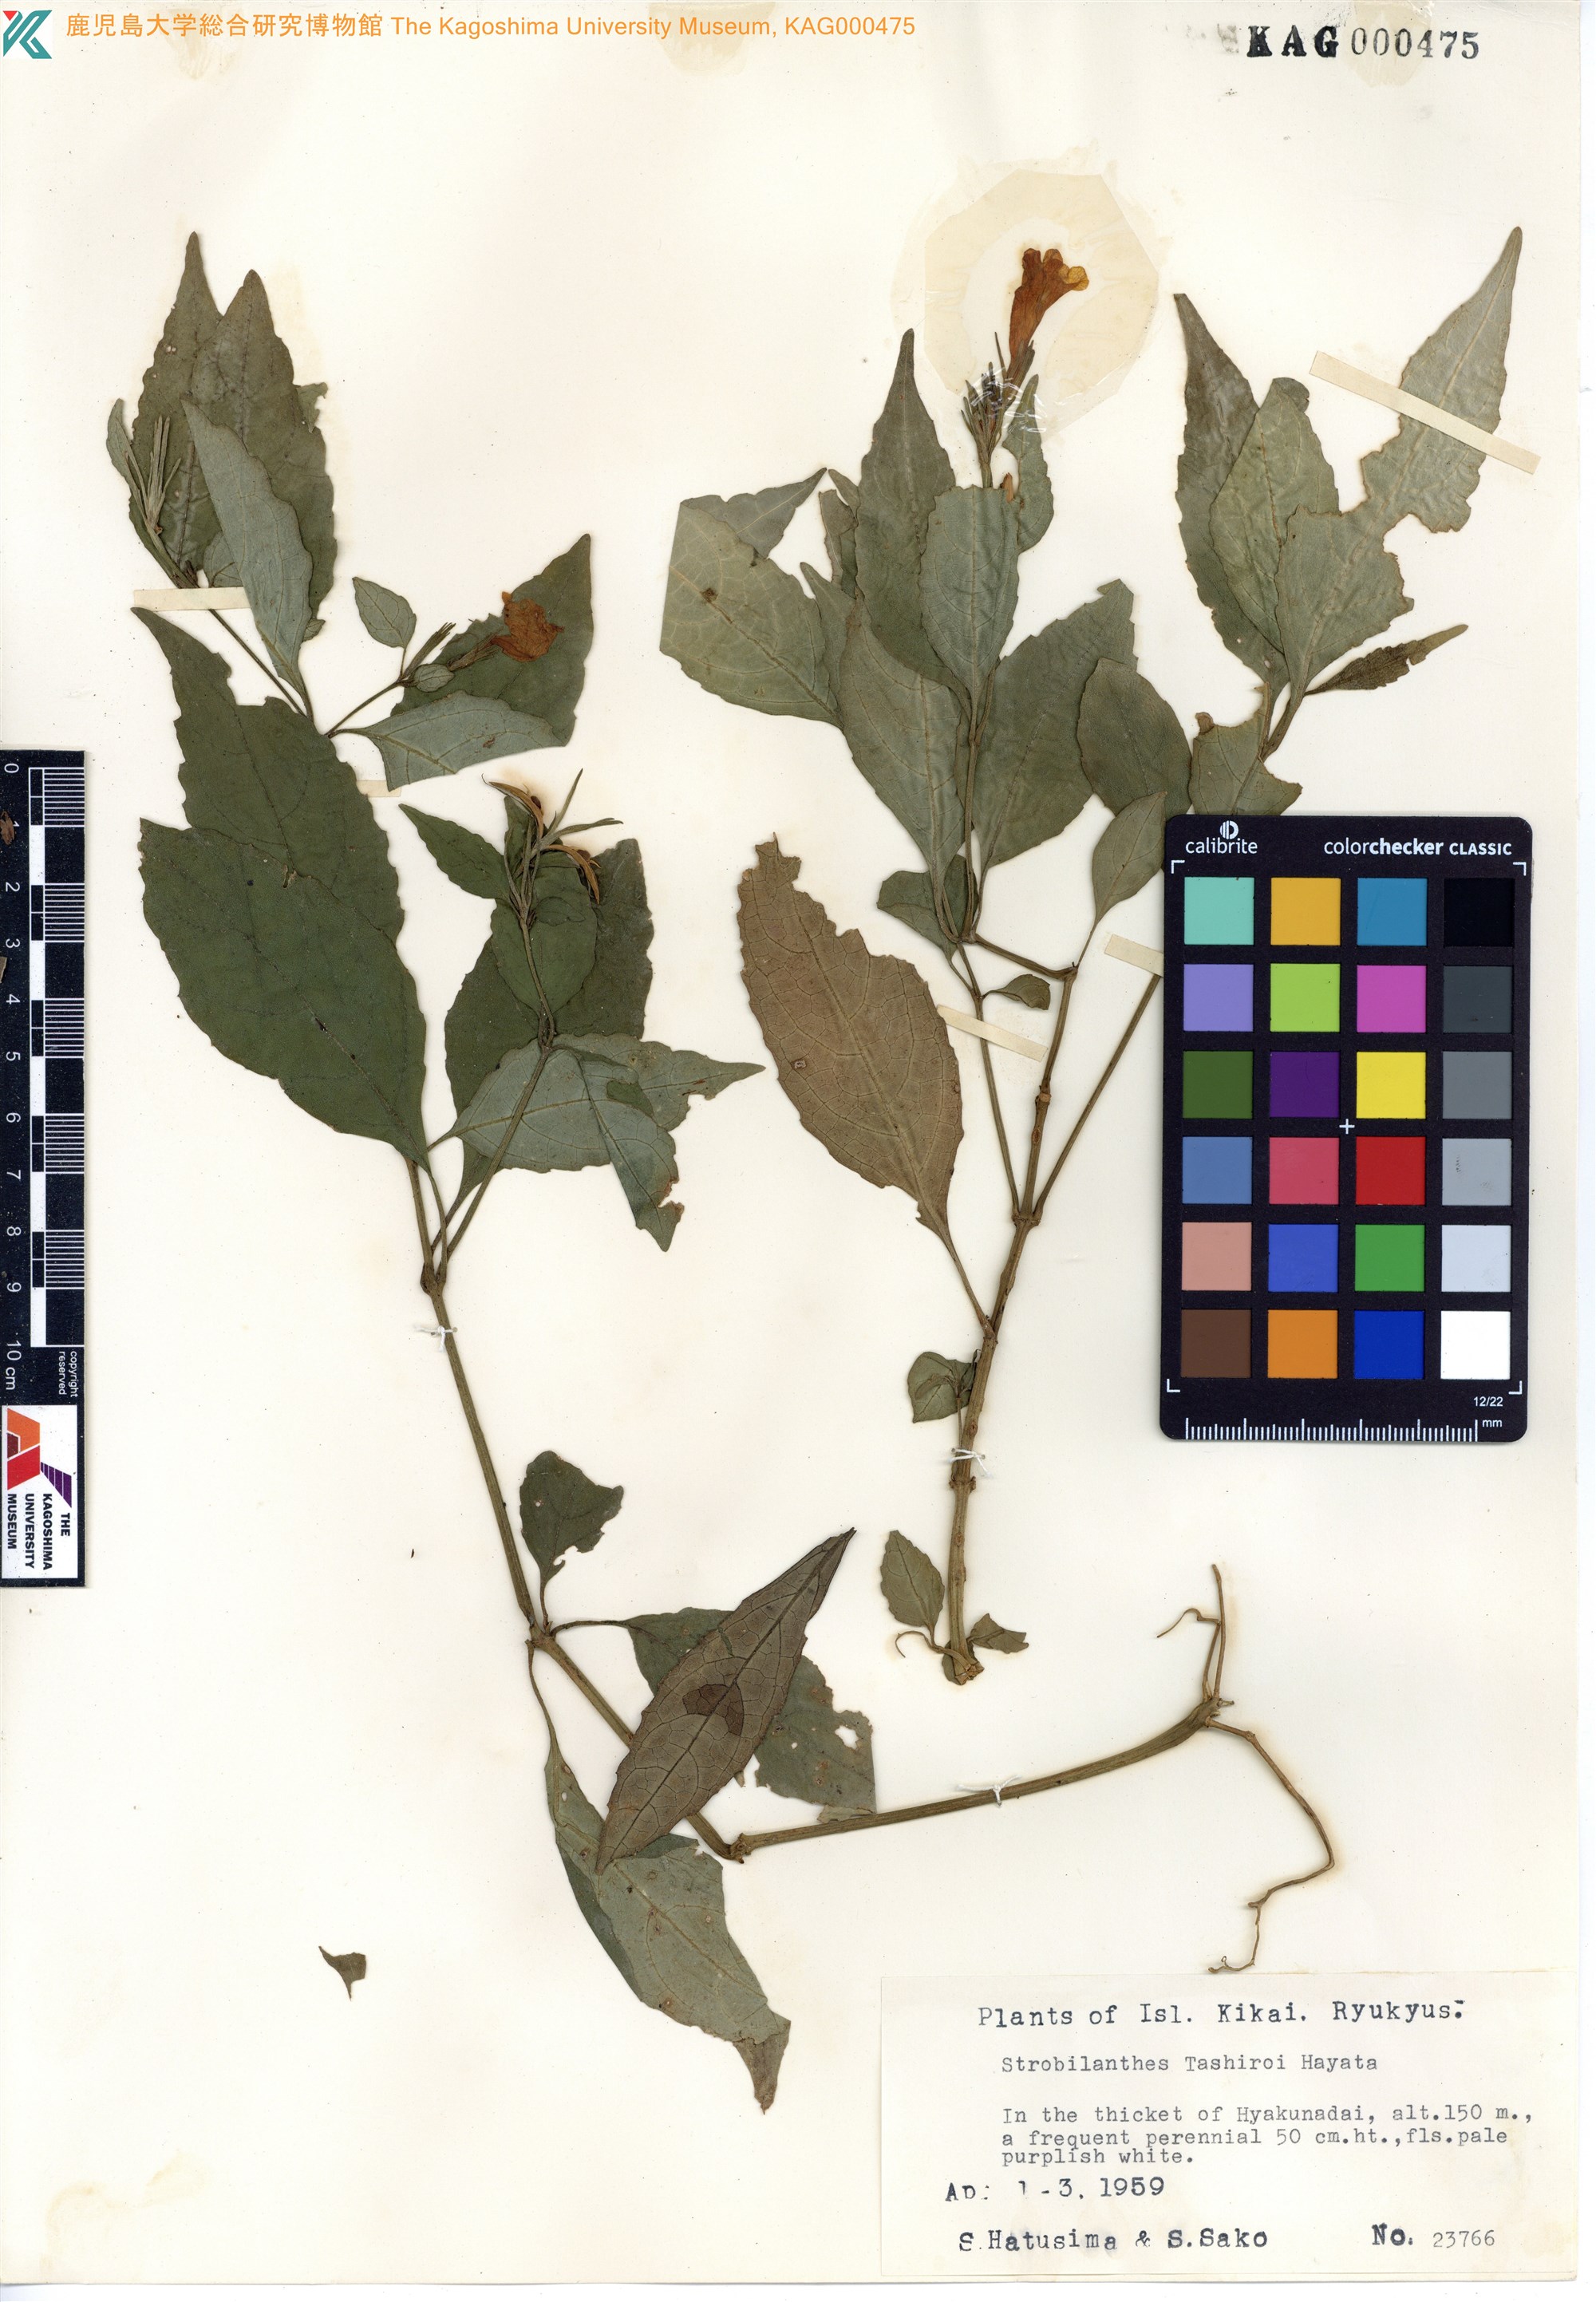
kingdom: Plantae
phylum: Tracheophyta
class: Magnoliopsida
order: Lamiales
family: Acanthaceae
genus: Strobilanthes
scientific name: Strobilanthes flexicaulis
